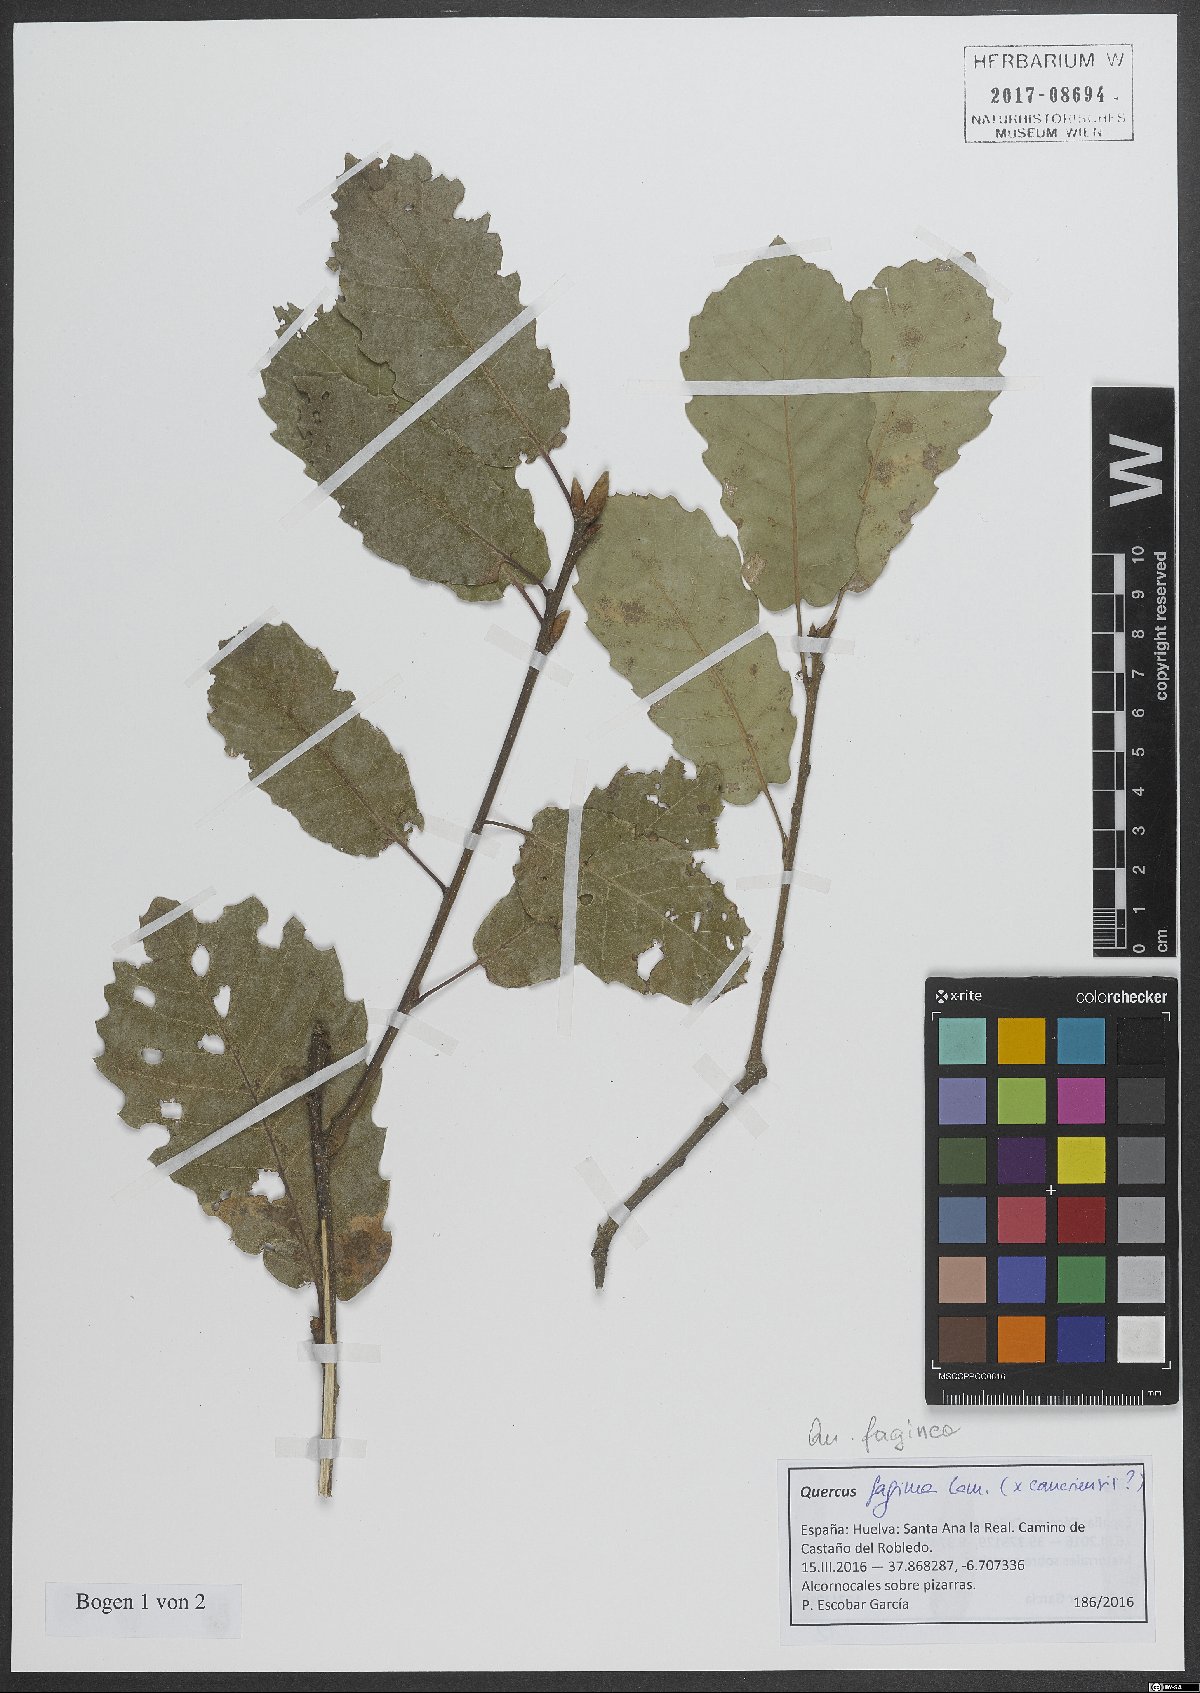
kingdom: Plantae
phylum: Tracheophyta
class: Magnoliopsida
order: Fagales
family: Fagaceae
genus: Quercus
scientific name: Quercus faginea
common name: Gall oak tree
